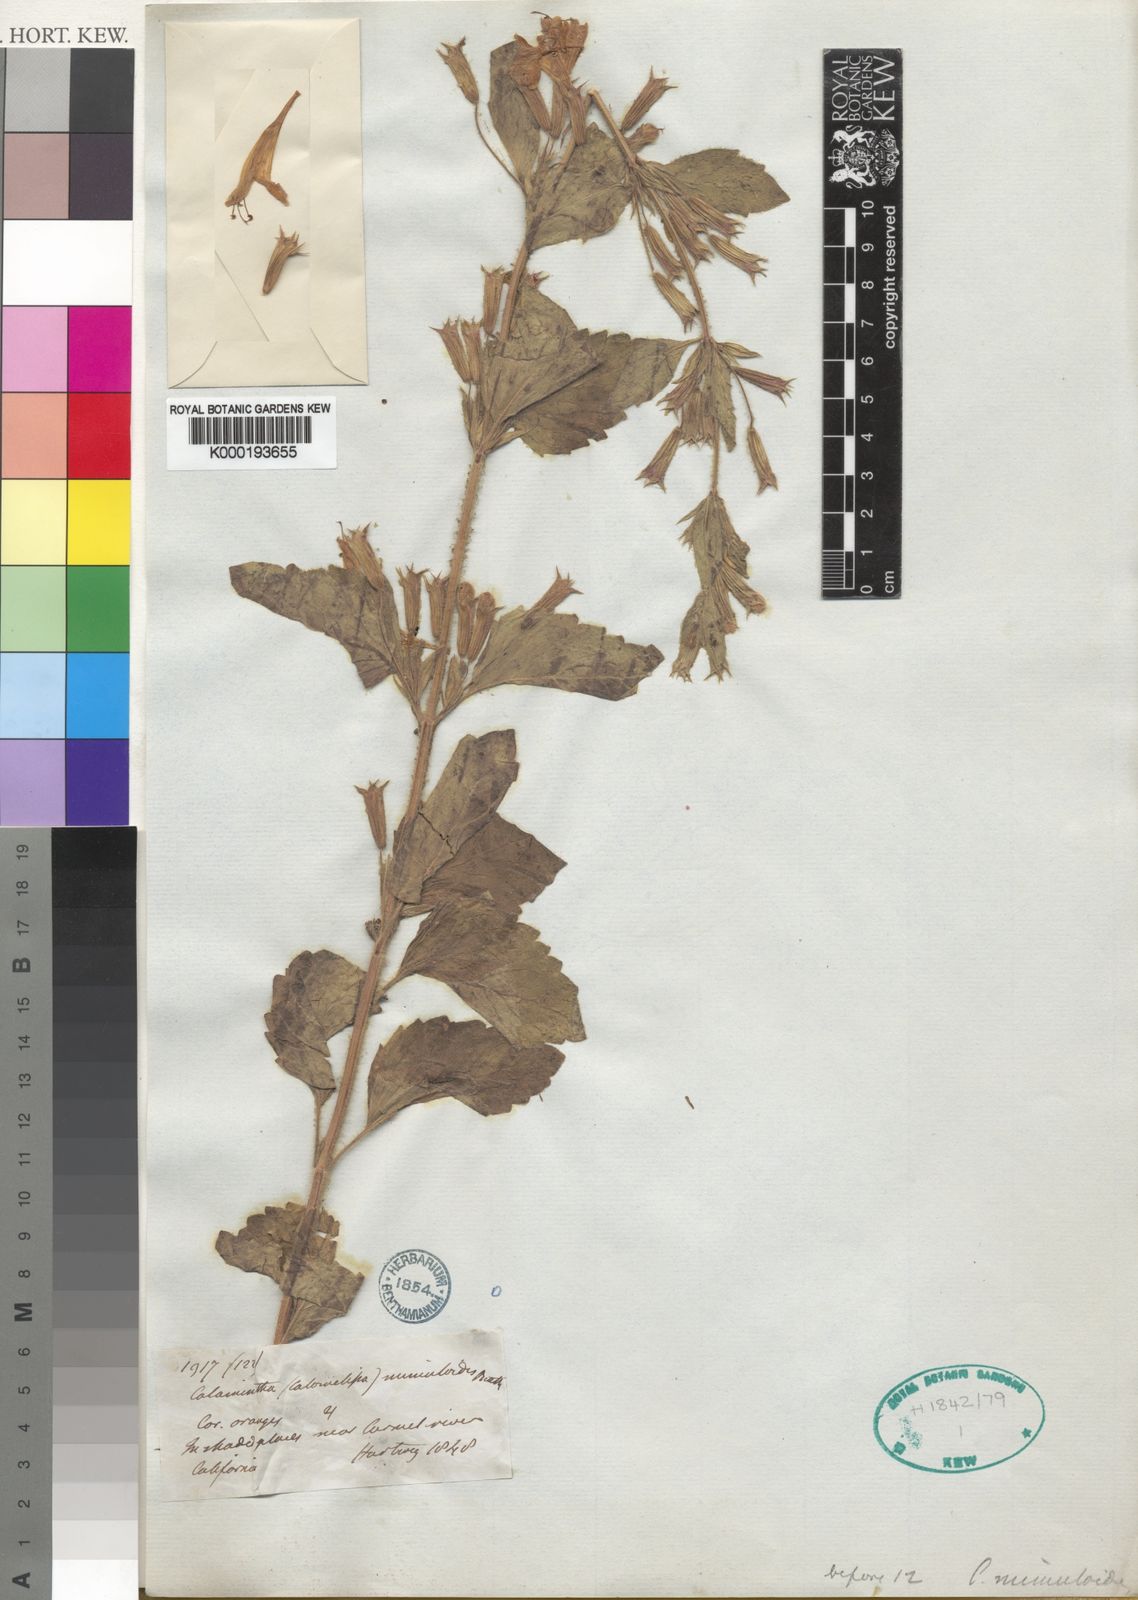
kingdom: Plantae
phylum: Tracheophyta
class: Magnoliopsida
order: Lamiales
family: Lamiaceae
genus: Clinopodium
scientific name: Clinopodium mimuloides
